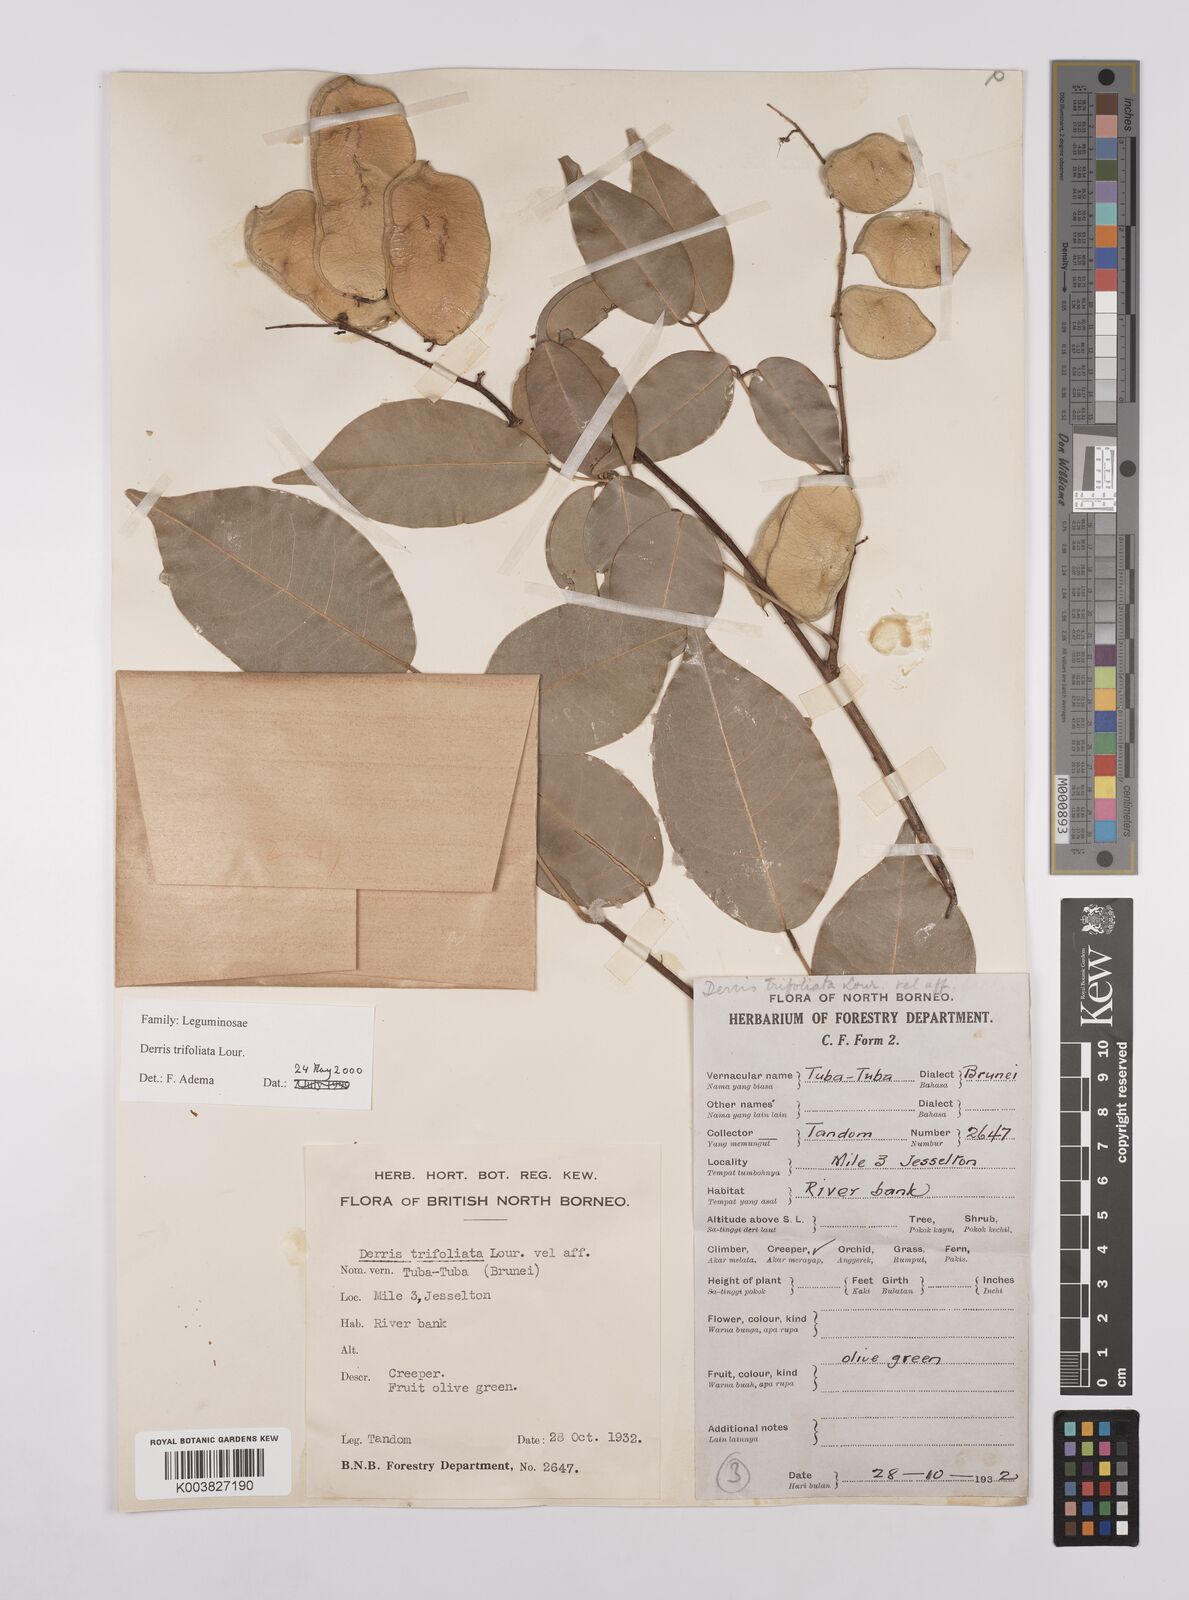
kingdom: Plantae
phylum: Tracheophyta
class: Magnoliopsida
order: Fabales
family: Fabaceae
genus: Derris
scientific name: Derris trifoliata
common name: Three-leaf derris
